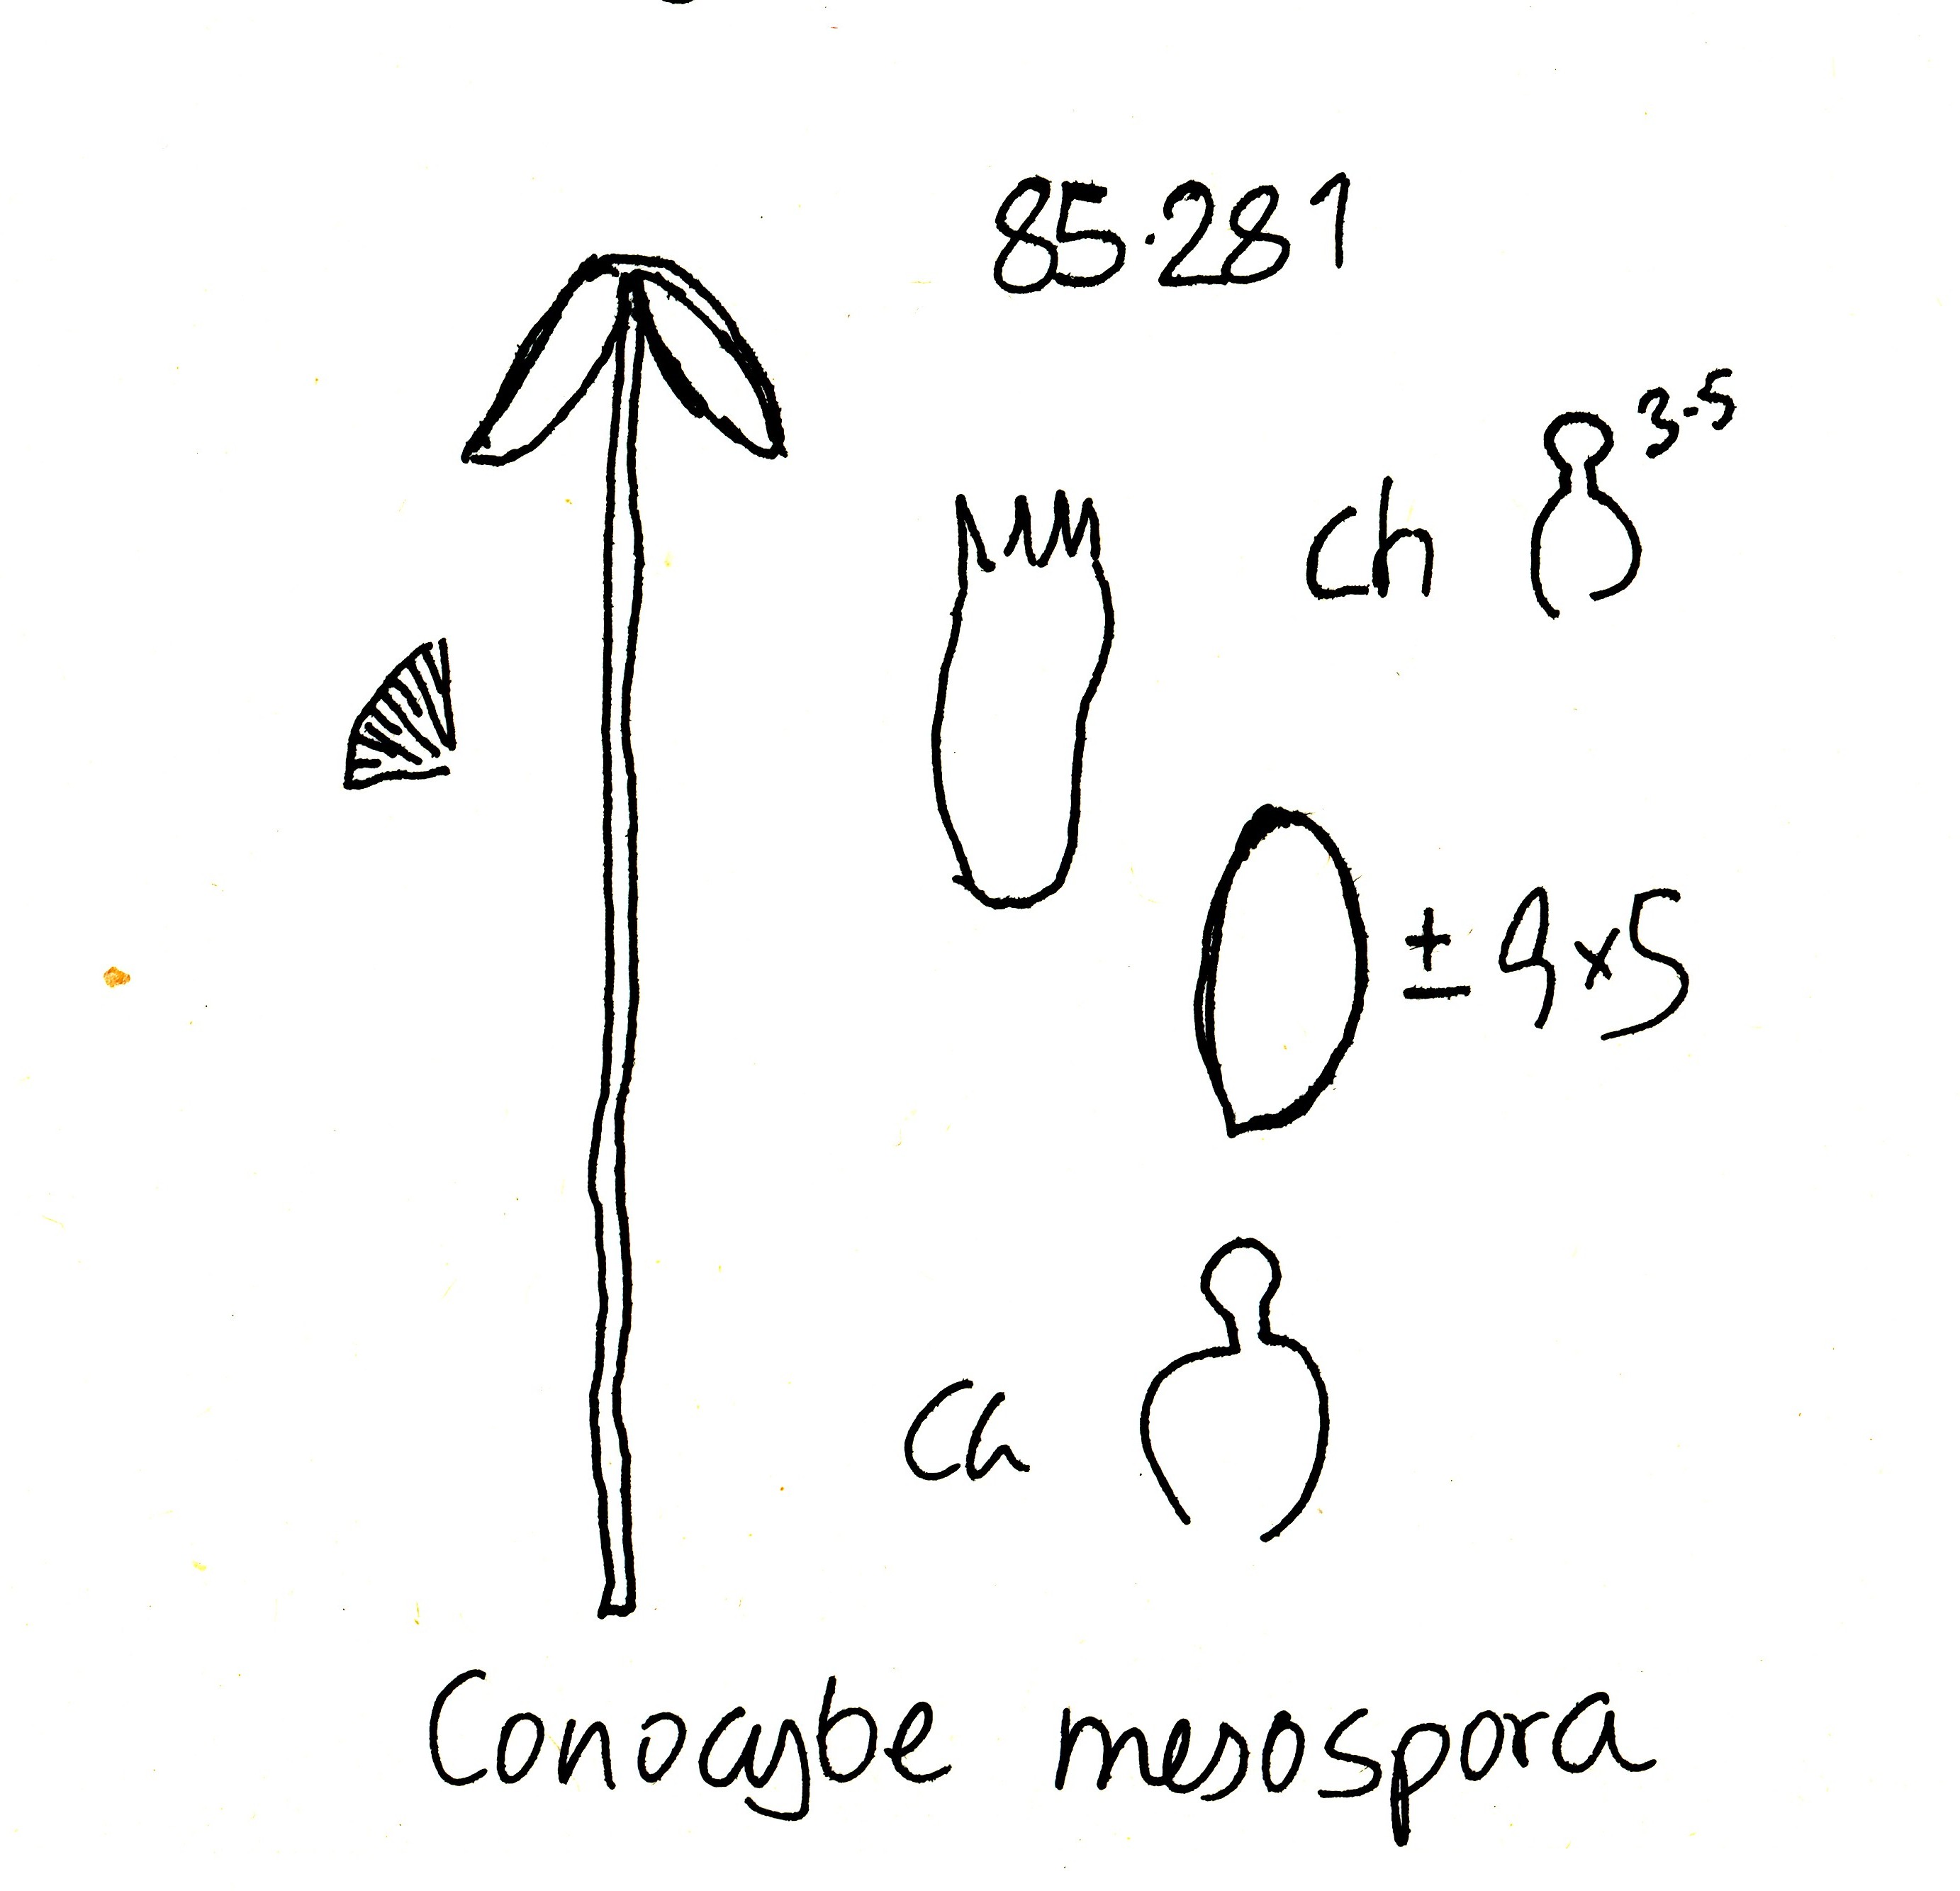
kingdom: Fungi
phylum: Basidiomycota
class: Agaricomycetes
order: Agaricales
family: Bolbitiaceae
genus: Conocybe
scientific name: Conocybe rostellata
